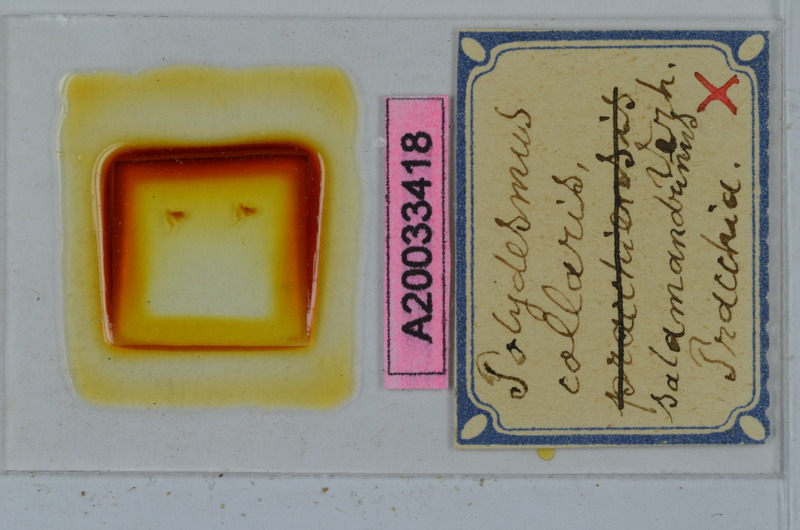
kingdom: Animalia
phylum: Arthropoda
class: Diplopoda
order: Polydesmida
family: Polydesmidae
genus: Polydesmus
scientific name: Polydesmus collaris
